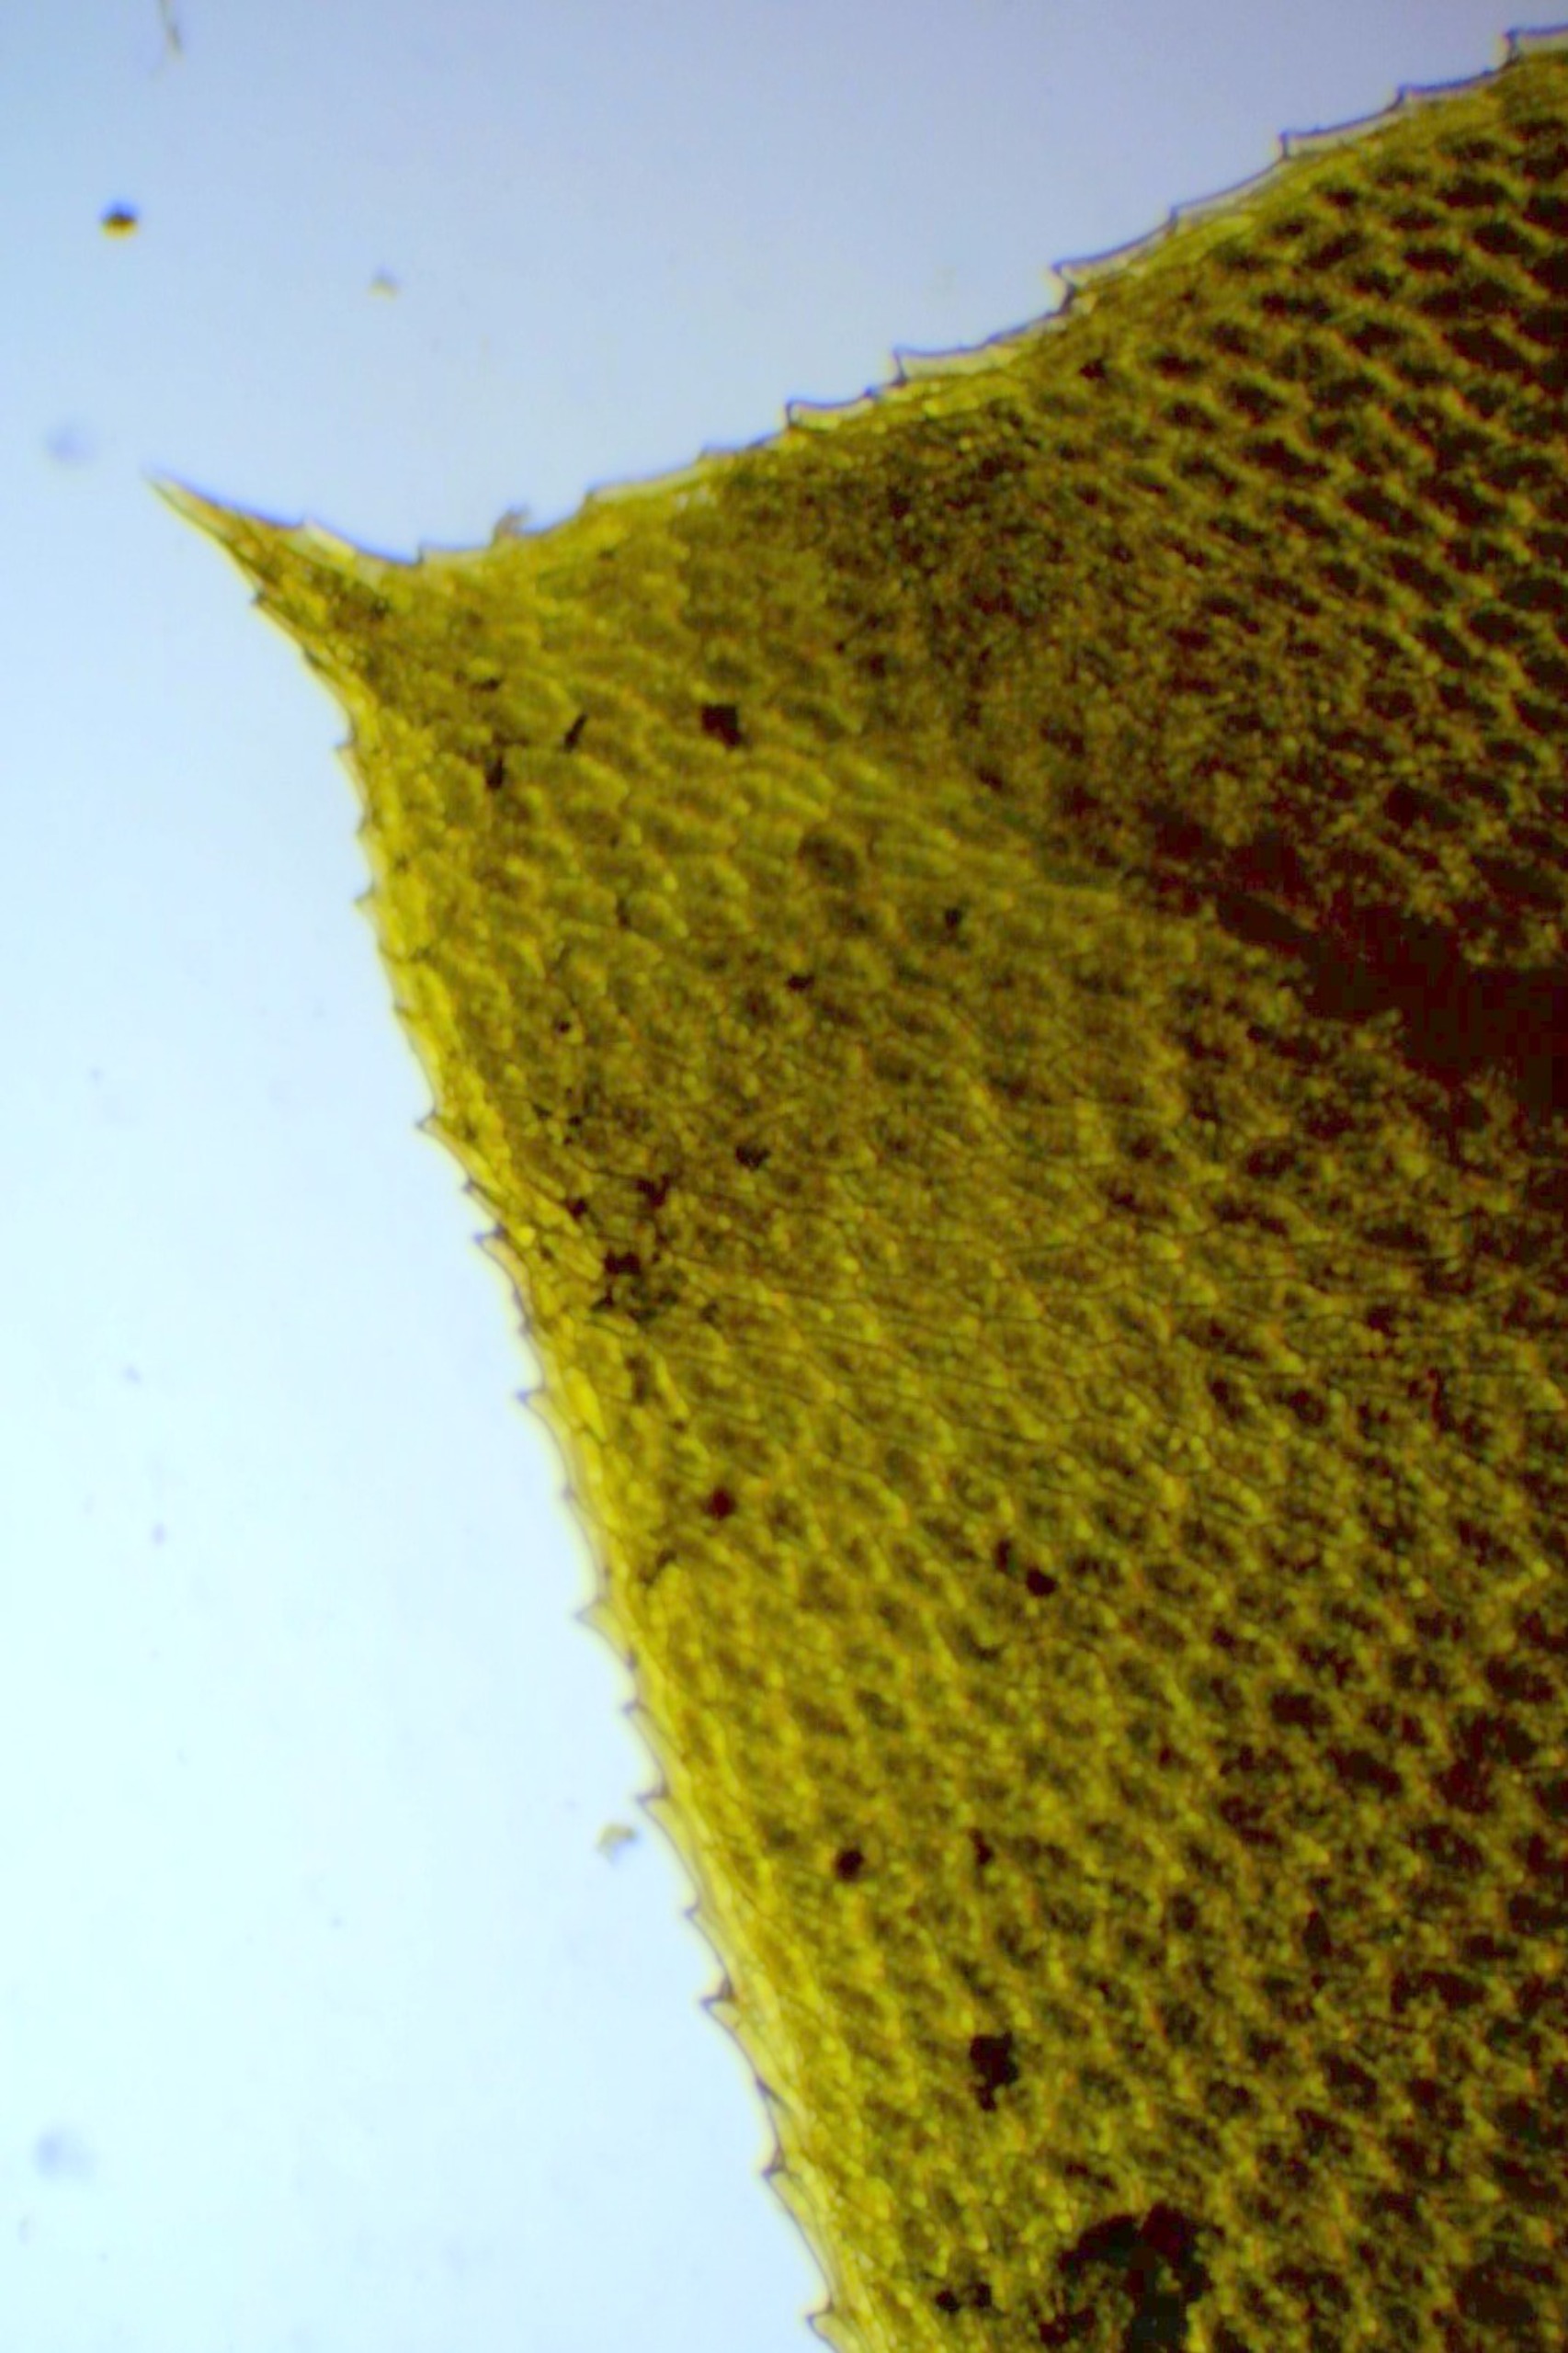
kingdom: Plantae
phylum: Bryophyta
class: Bryopsida
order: Bryales
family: Bryaceae
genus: Rhodobryum
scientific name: Rhodobryum roseum
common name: Stor rosetmos
